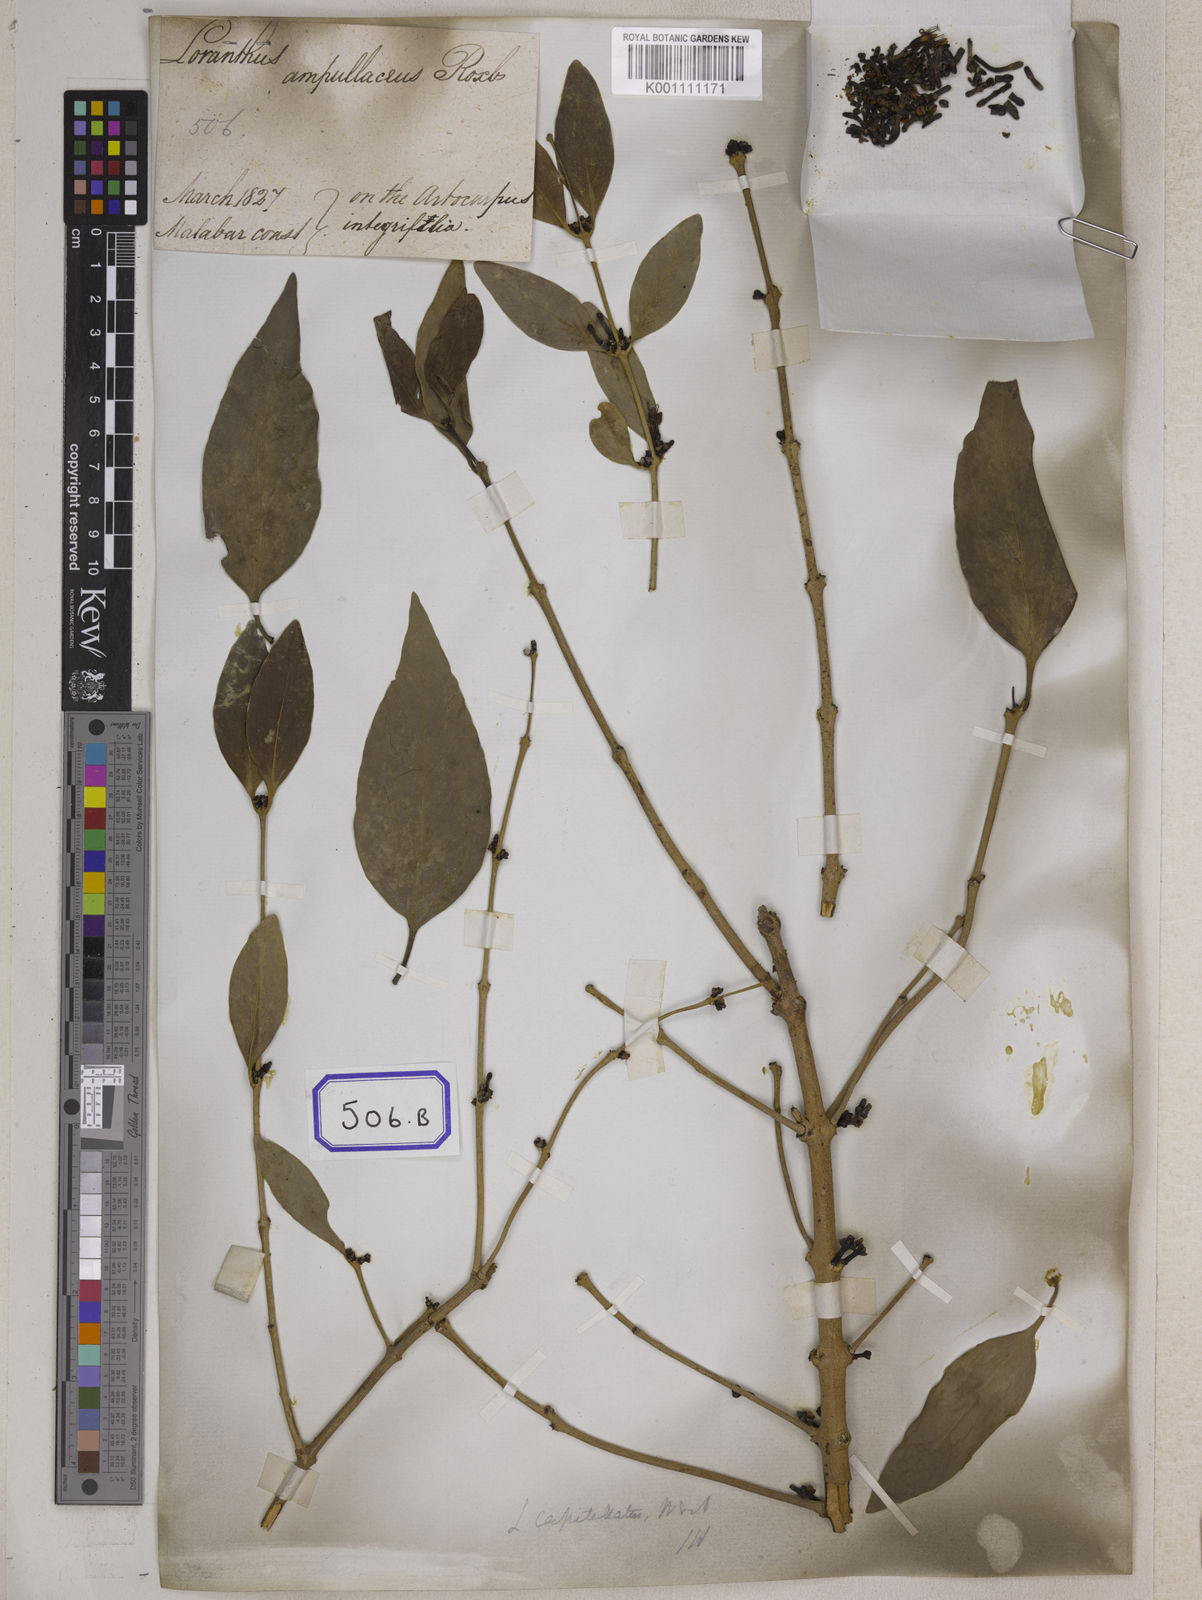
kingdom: Plantae
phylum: Tracheophyta
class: Magnoliopsida
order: Santalales
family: Loranthaceae
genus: Macrosolen
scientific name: Macrosolen parasiticus
